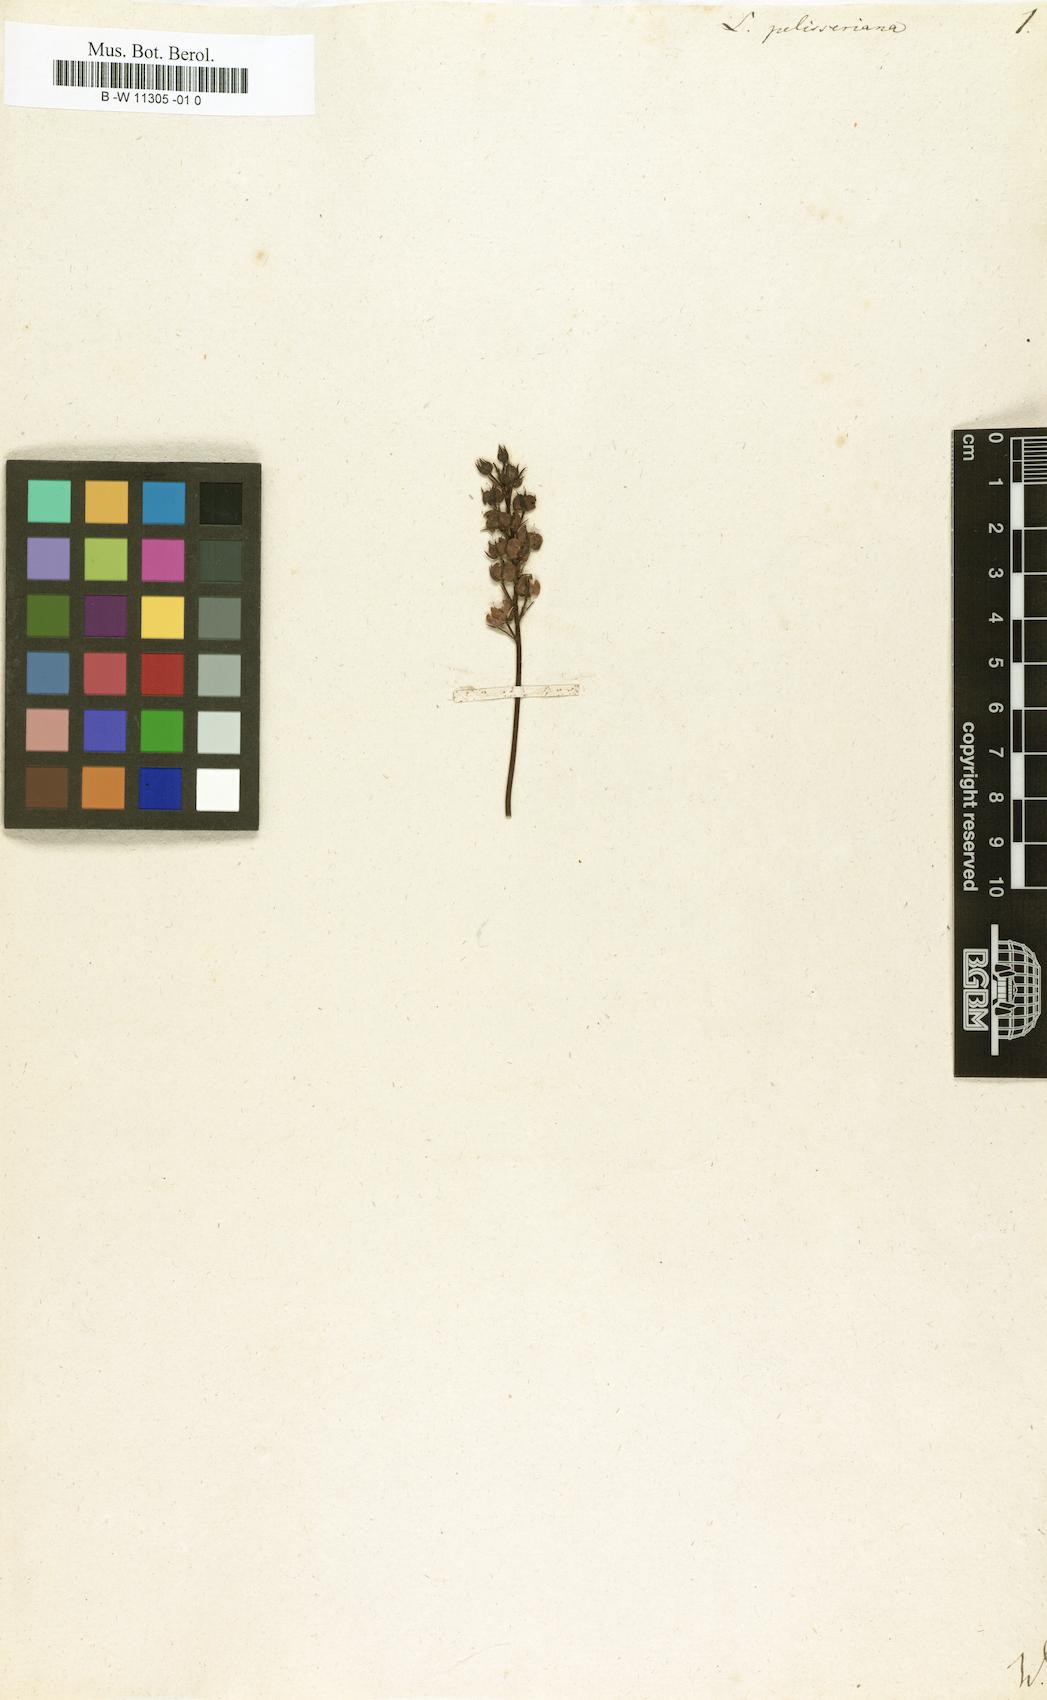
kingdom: Plantae
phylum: Tracheophyta
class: Magnoliopsida
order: Lamiales
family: Plantaginaceae
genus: Linaria
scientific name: Linaria pelisseriana
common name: Jersey toadflax
